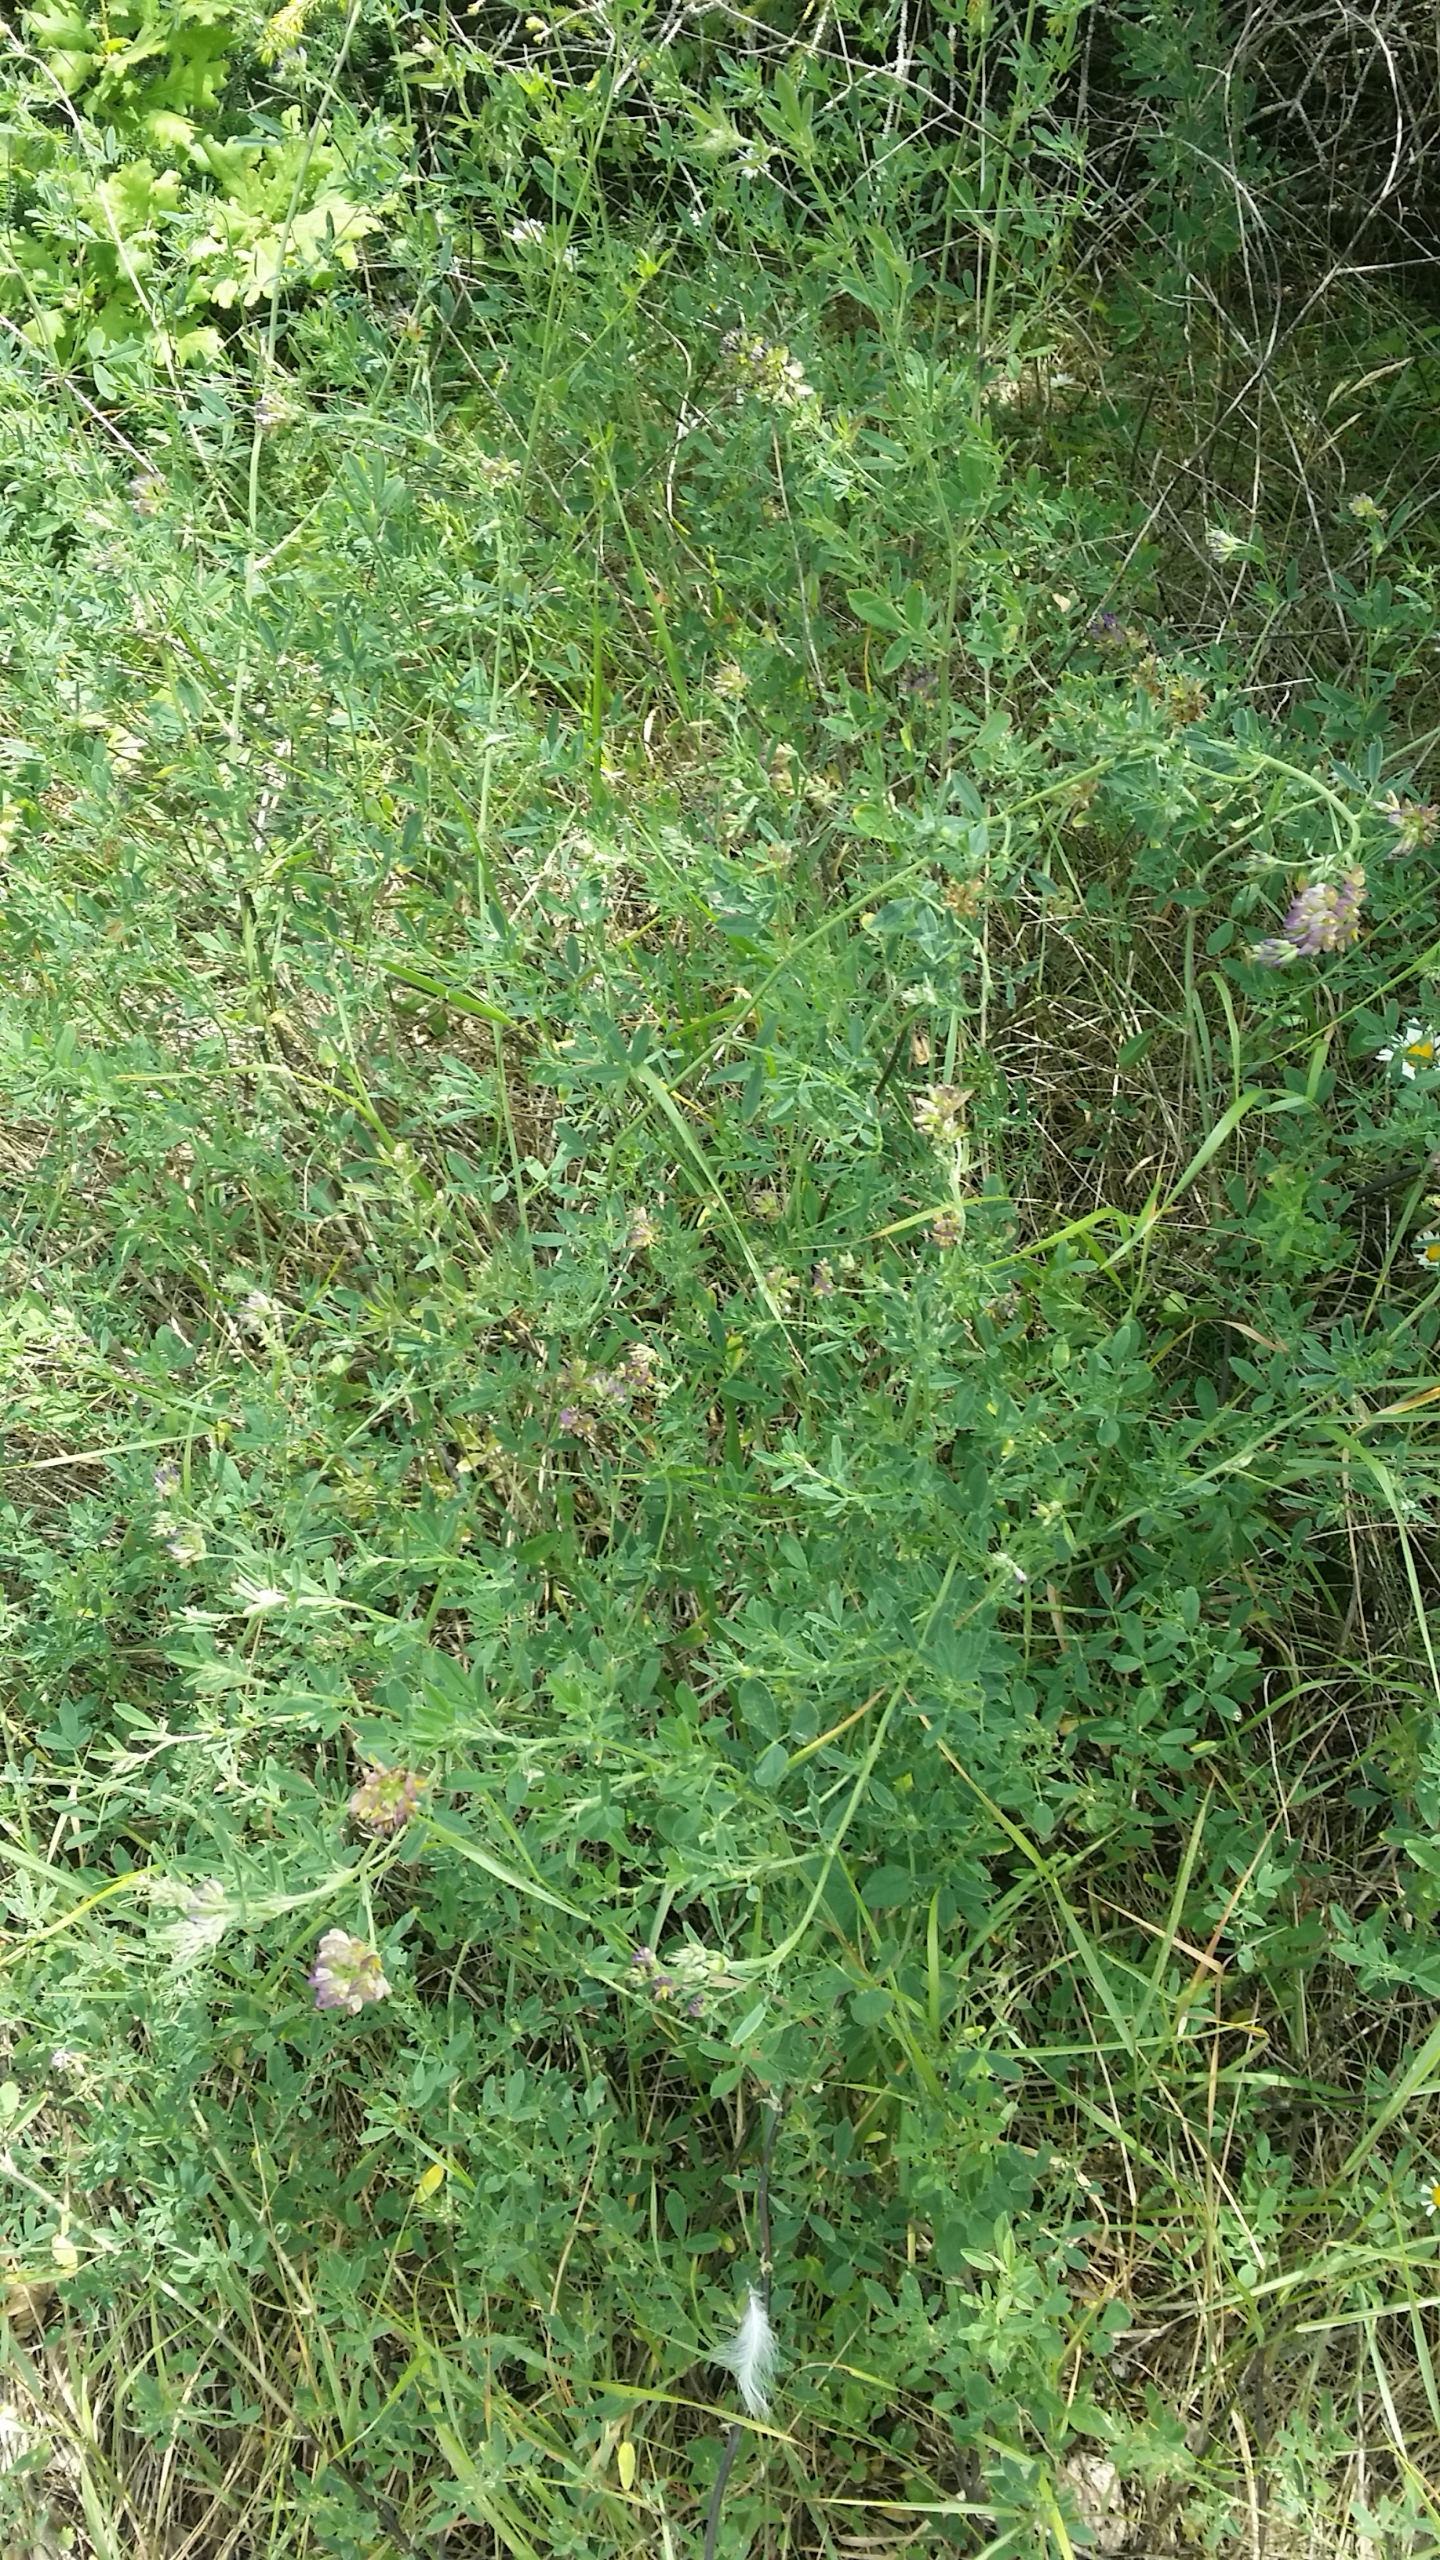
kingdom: Plantae
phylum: Tracheophyta
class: Magnoliopsida
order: Fabales
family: Fabaceae
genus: Medicago
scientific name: Medicago varia
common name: Sand-lucerne
